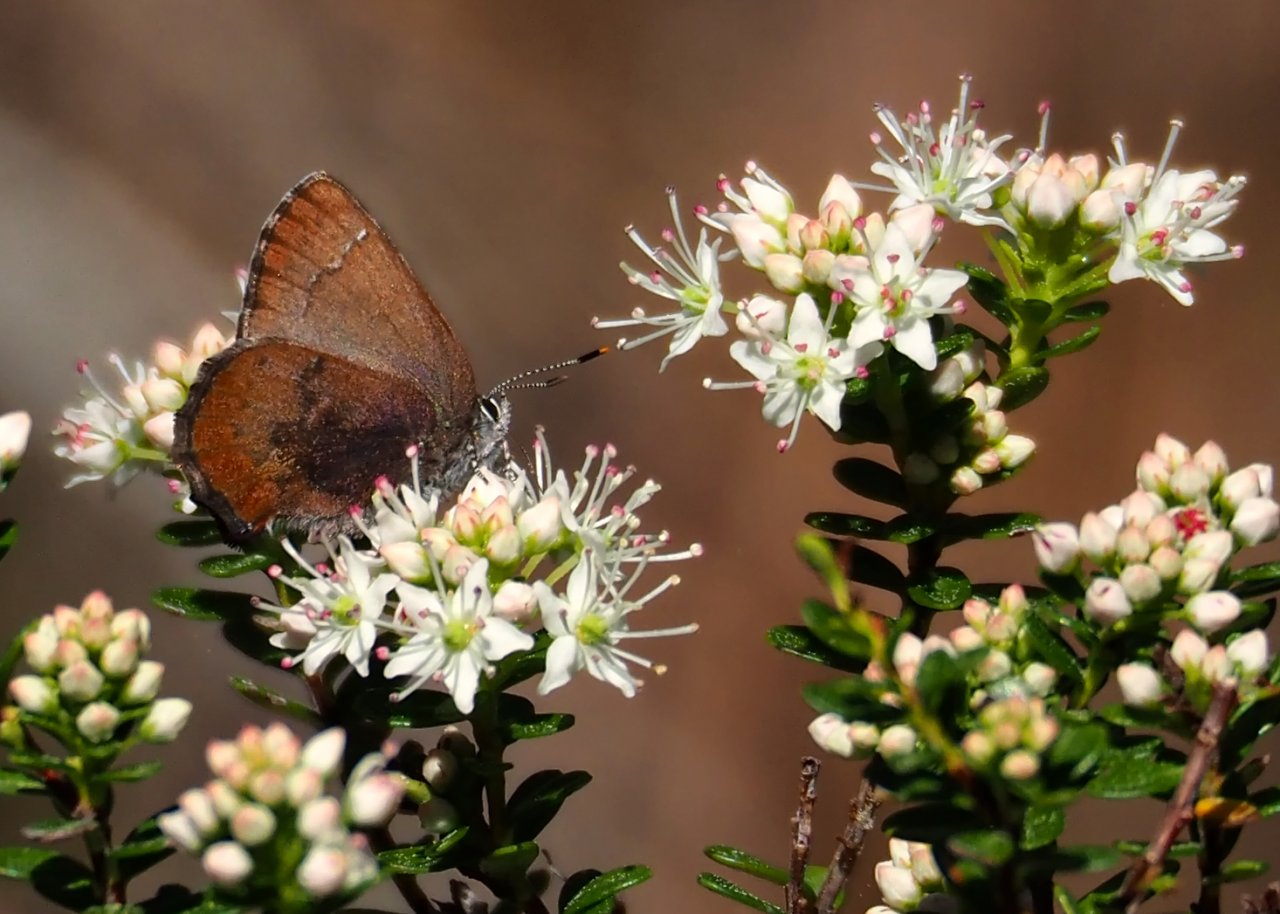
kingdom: Animalia
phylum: Arthropoda
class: Insecta
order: Lepidoptera
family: Lycaenidae
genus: Incisalia
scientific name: Incisalia irioides
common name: Brown Elfin
